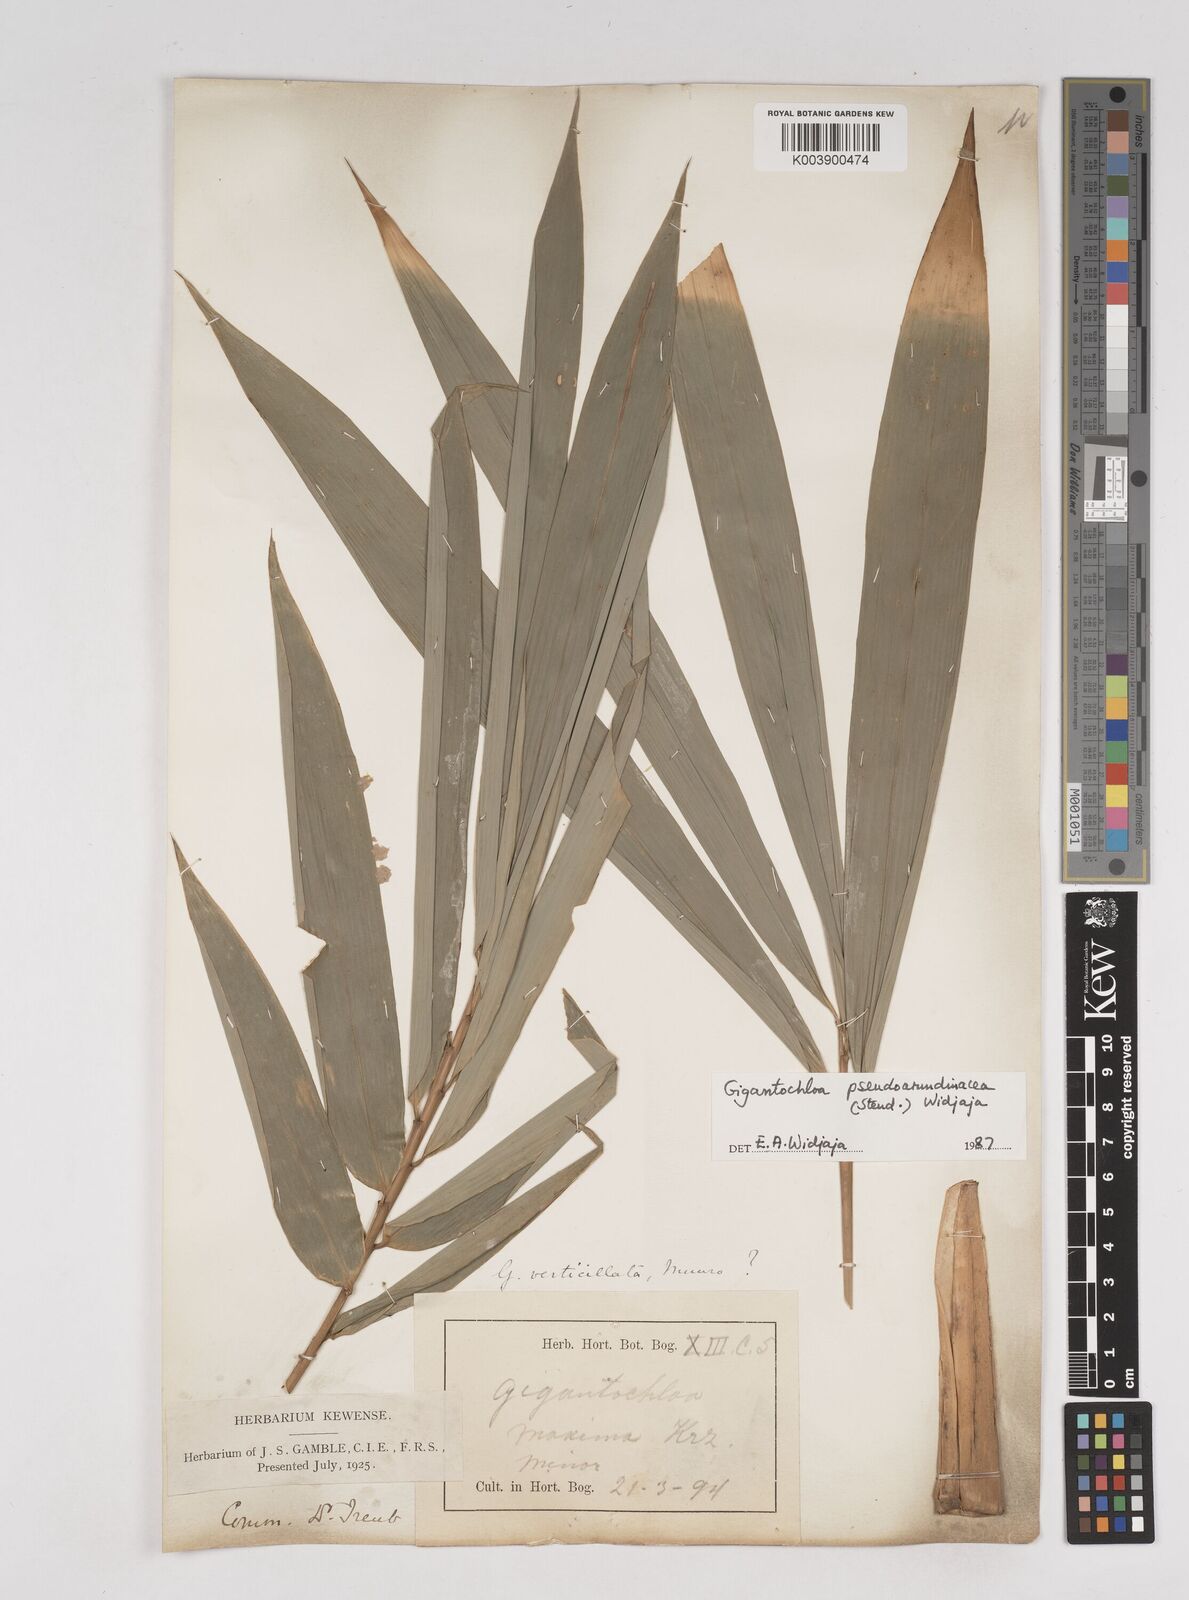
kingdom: Plantae
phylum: Tracheophyta
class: Liliopsida
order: Poales
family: Poaceae
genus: Gigantochloa
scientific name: Gigantochloa verticillata
